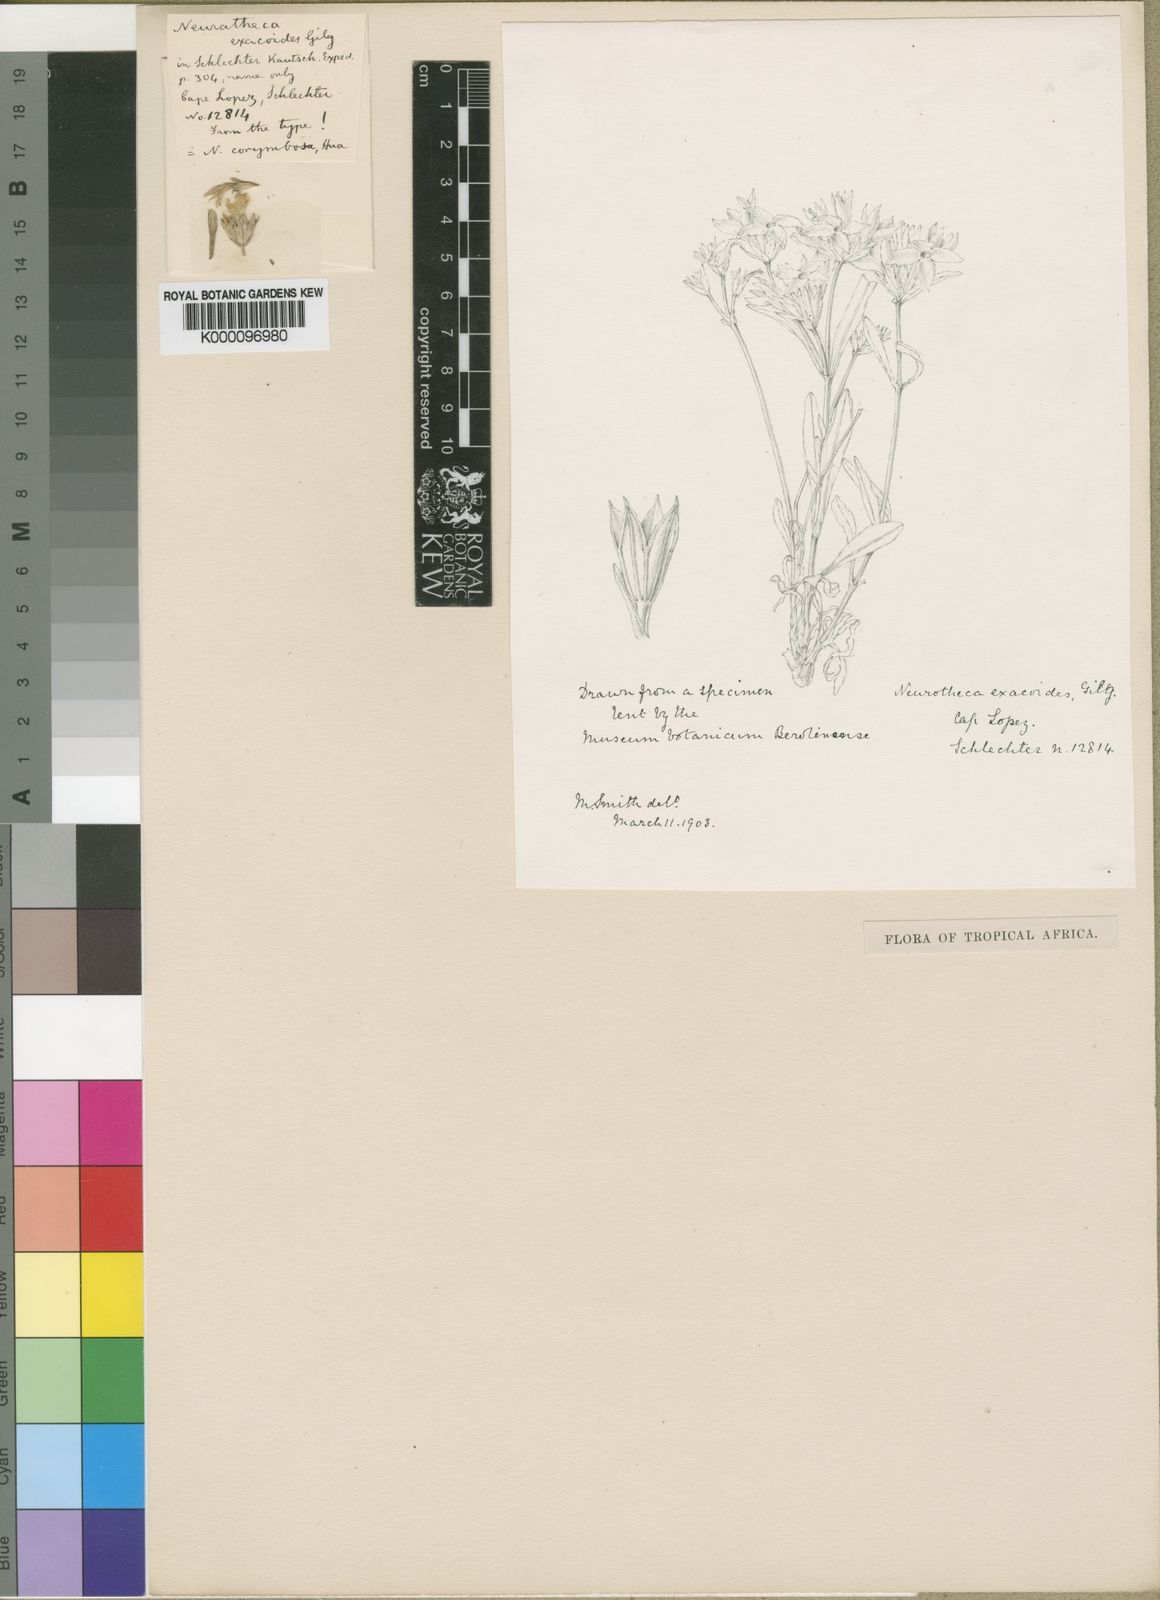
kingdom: Plantae
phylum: Tracheophyta
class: Magnoliopsida
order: Gentianales
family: Gentianaceae
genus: Neurotheca
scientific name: Neurotheca corymbosa
